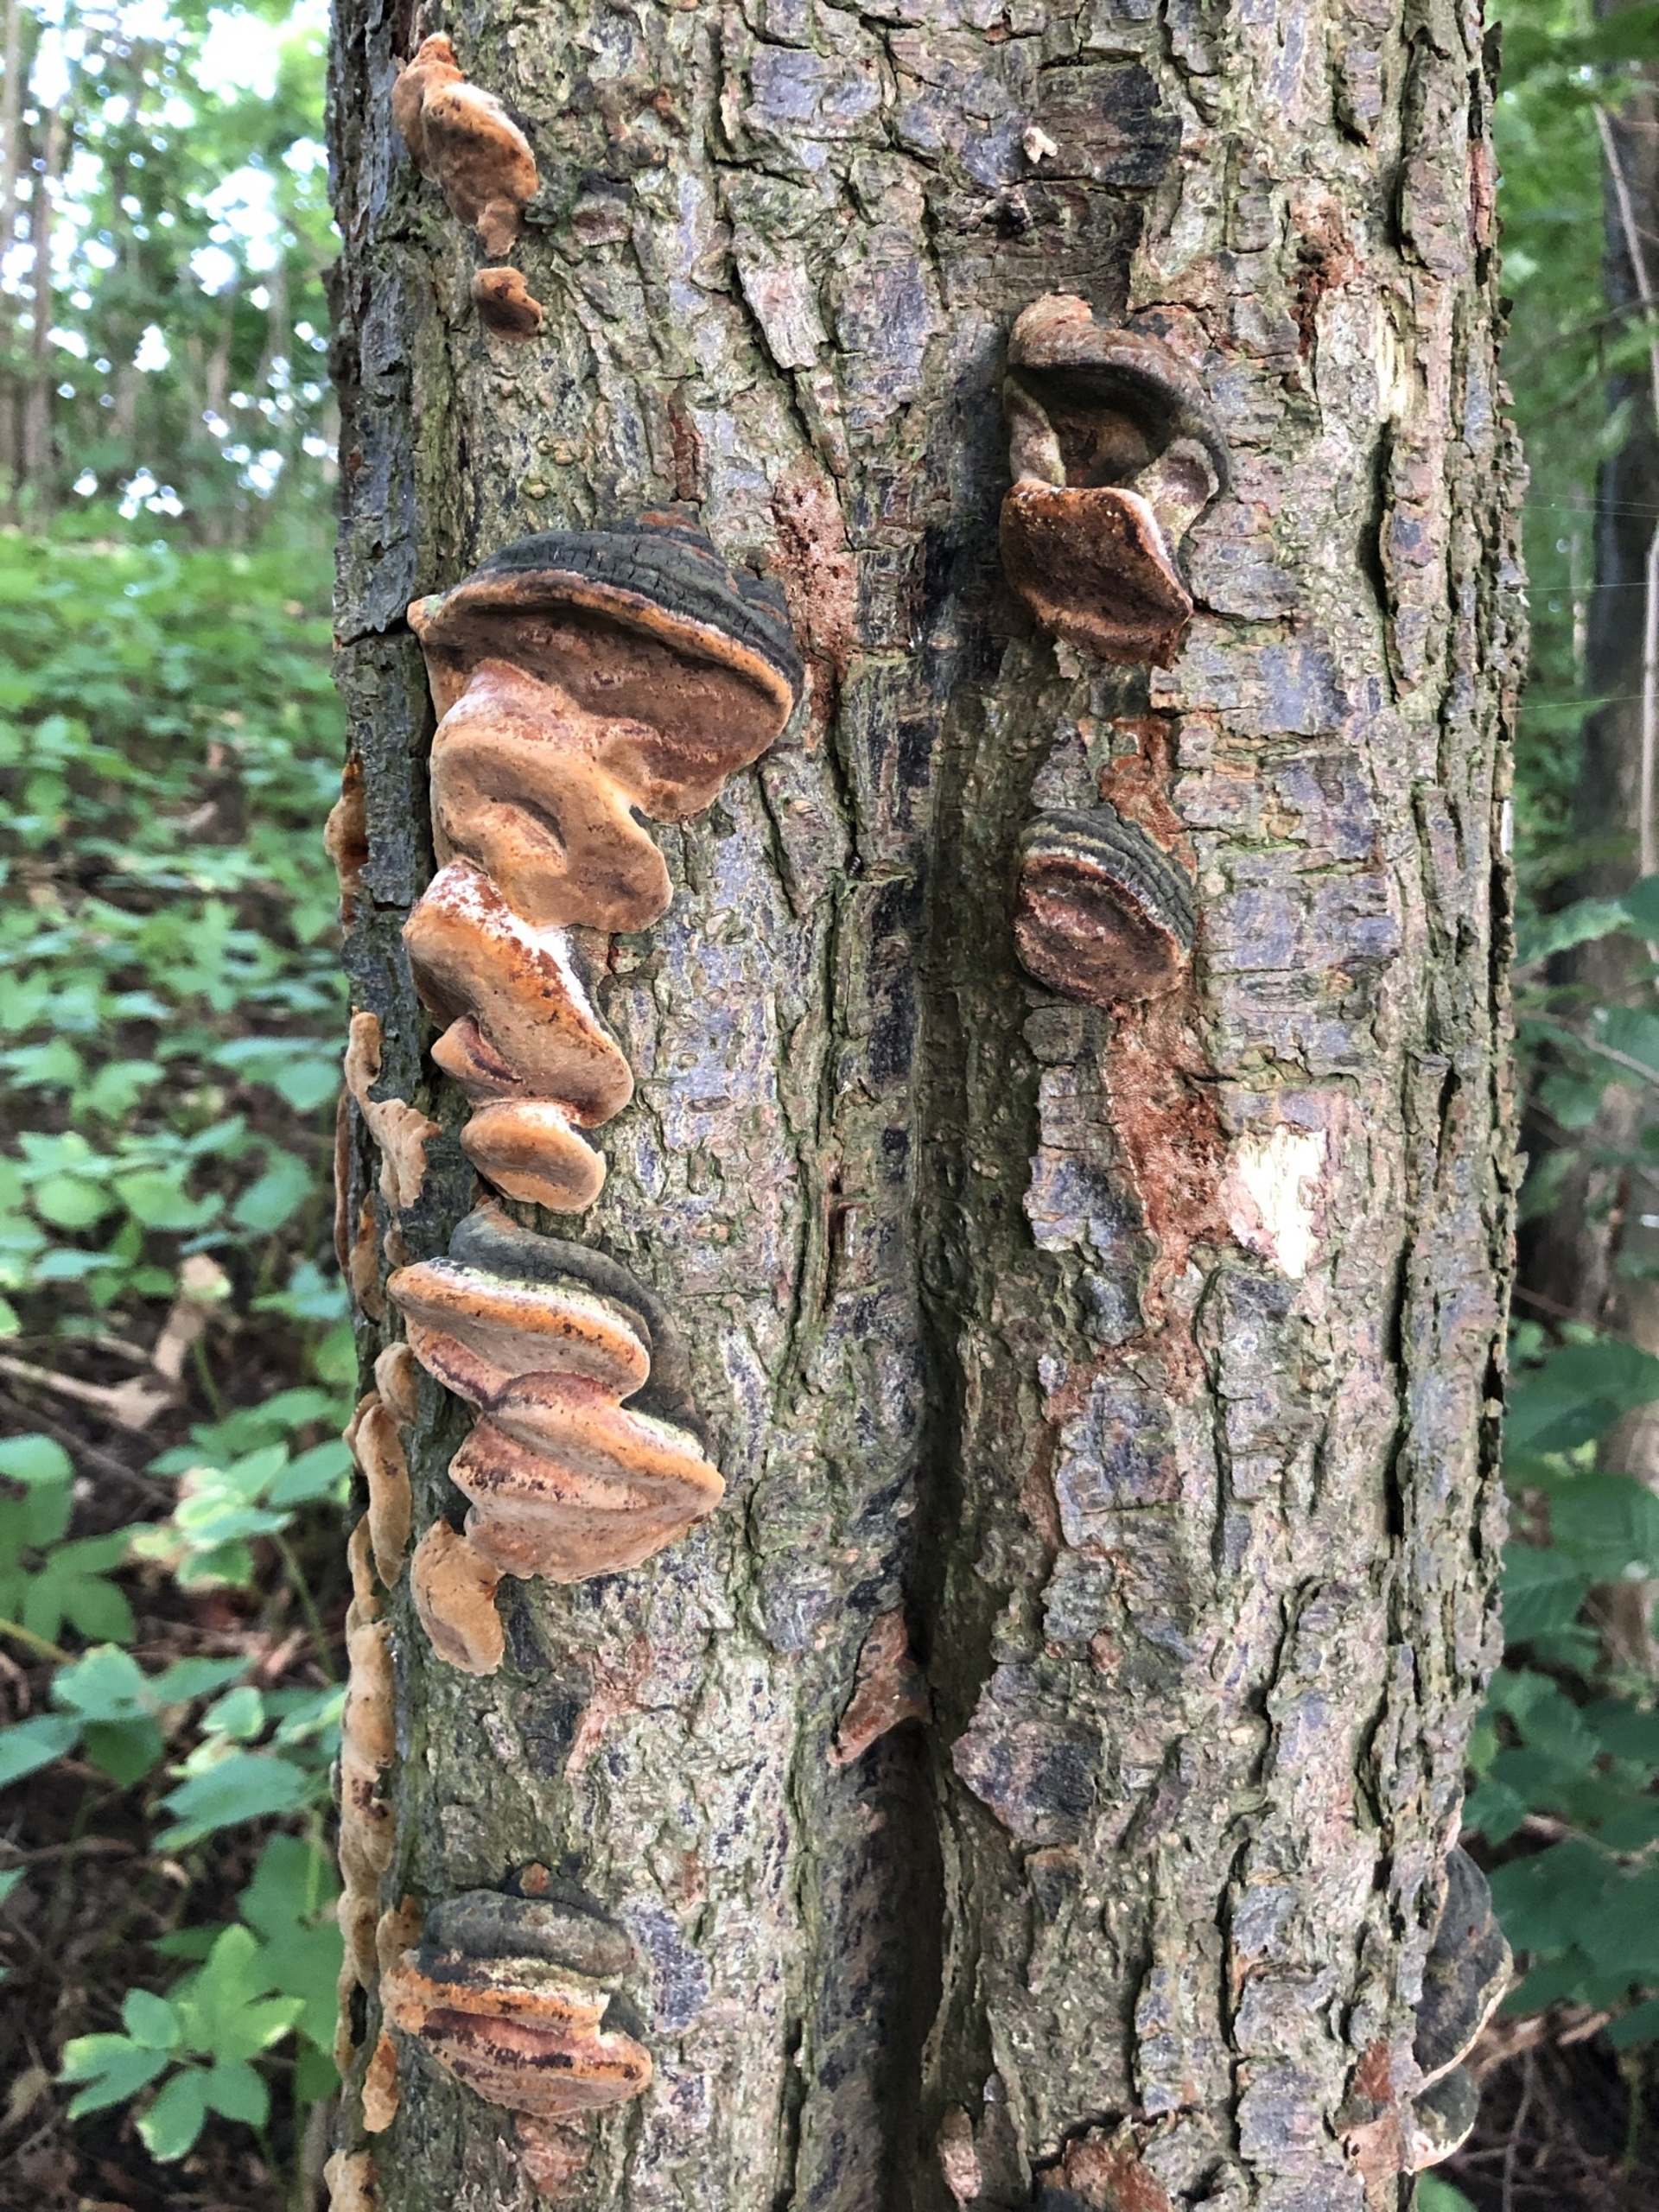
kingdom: Fungi
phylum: Basidiomycota
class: Agaricomycetes
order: Hymenochaetales
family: Hymenochaetaceae
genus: Phellinus
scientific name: Phellinus pomaceus
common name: Blomme-ildporesvamp
